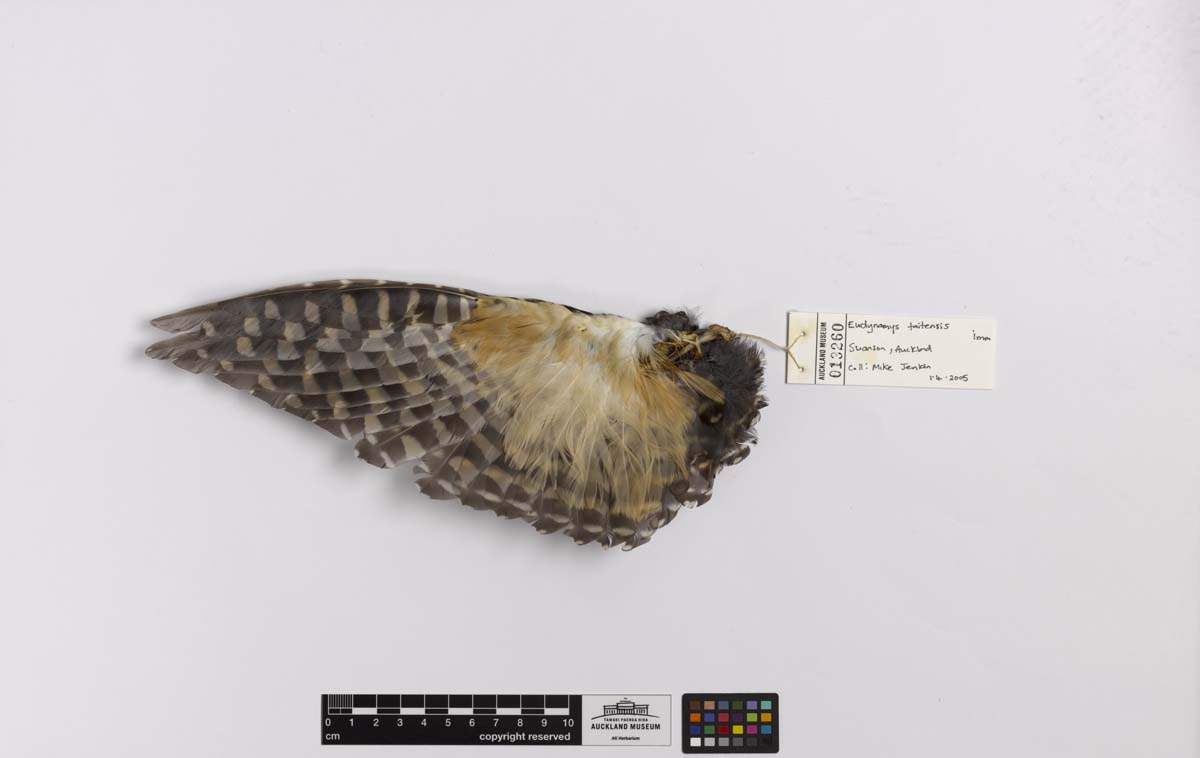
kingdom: Animalia
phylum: Chordata
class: Aves
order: Cuculiformes
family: Cuculidae
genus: Urodynamis
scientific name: Urodynamis taitensis
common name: Long-tailed koel
